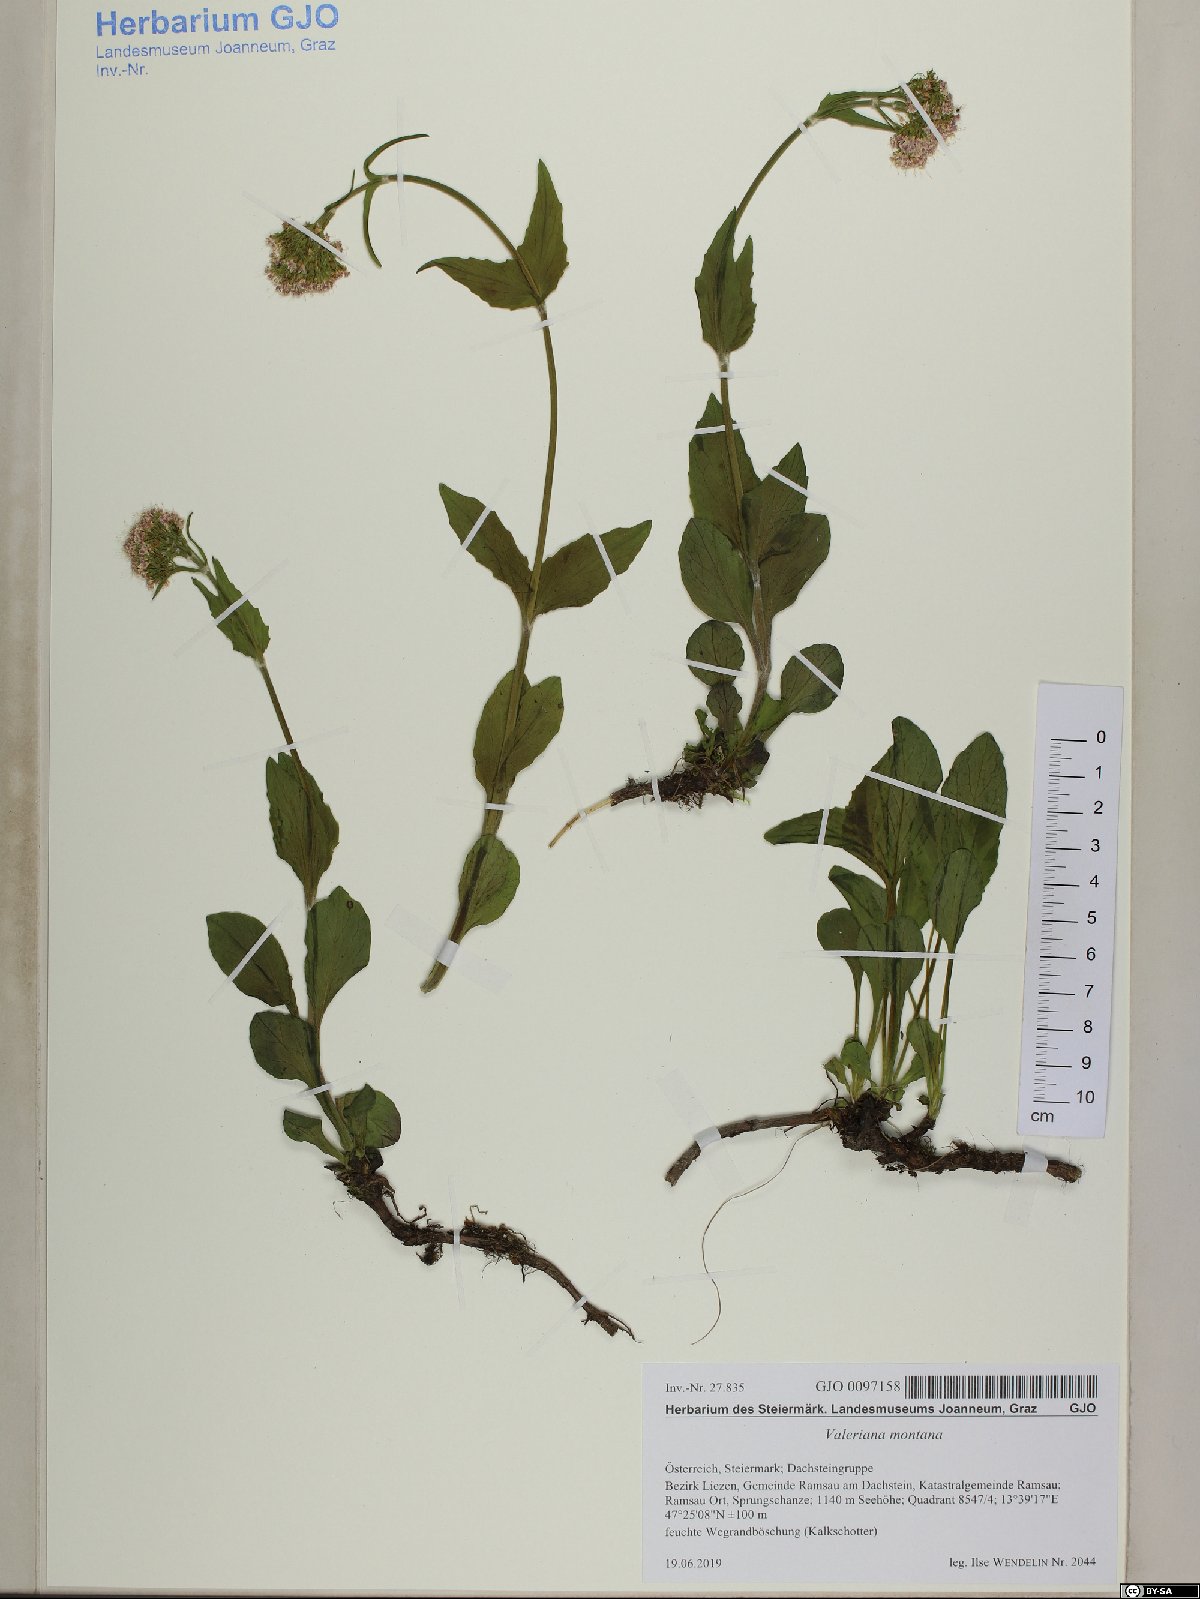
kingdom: Plantae
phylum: Tracheophyta
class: Magnoliopsida
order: Dipsacales
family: Caprifoliaceae
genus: Valeriana
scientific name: Valeriana montana
